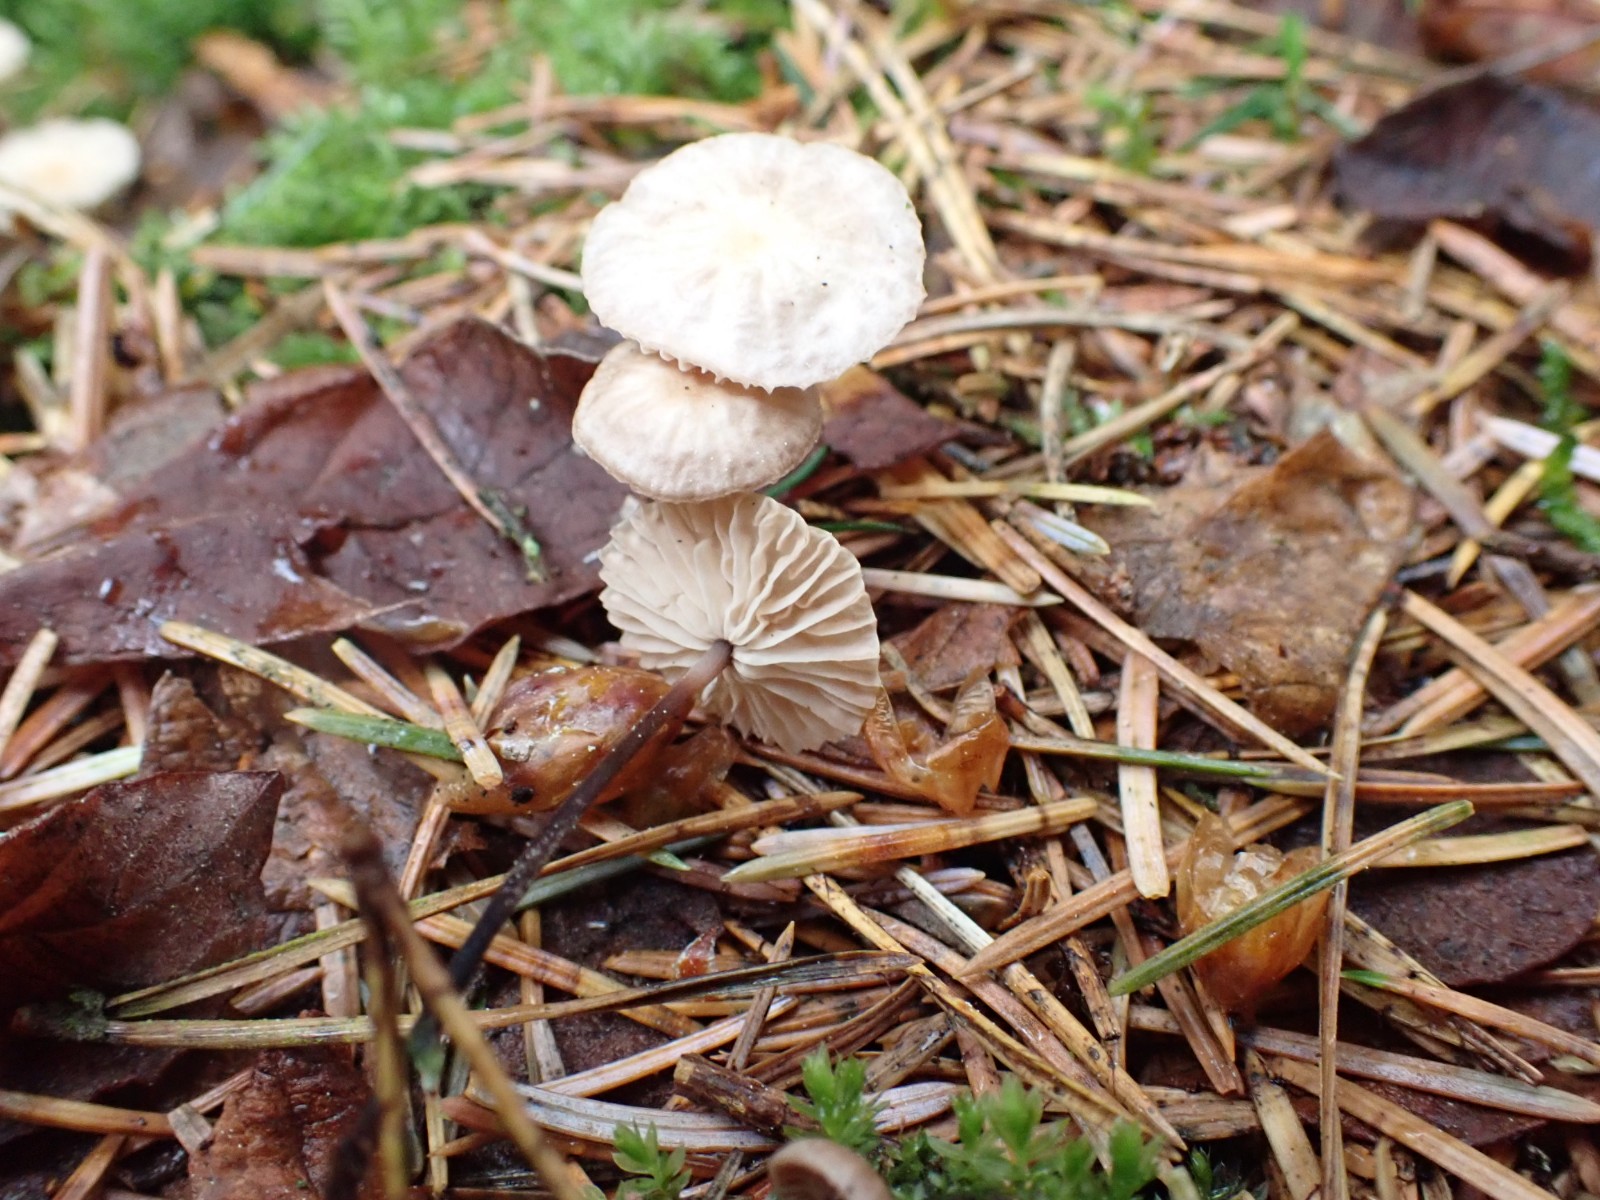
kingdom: Fungi
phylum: Basidiomycota
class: Agaricomycetes
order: Agaricales
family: Omphalotaceae
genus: Paragymnopus
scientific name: Paragymnopus perforans
